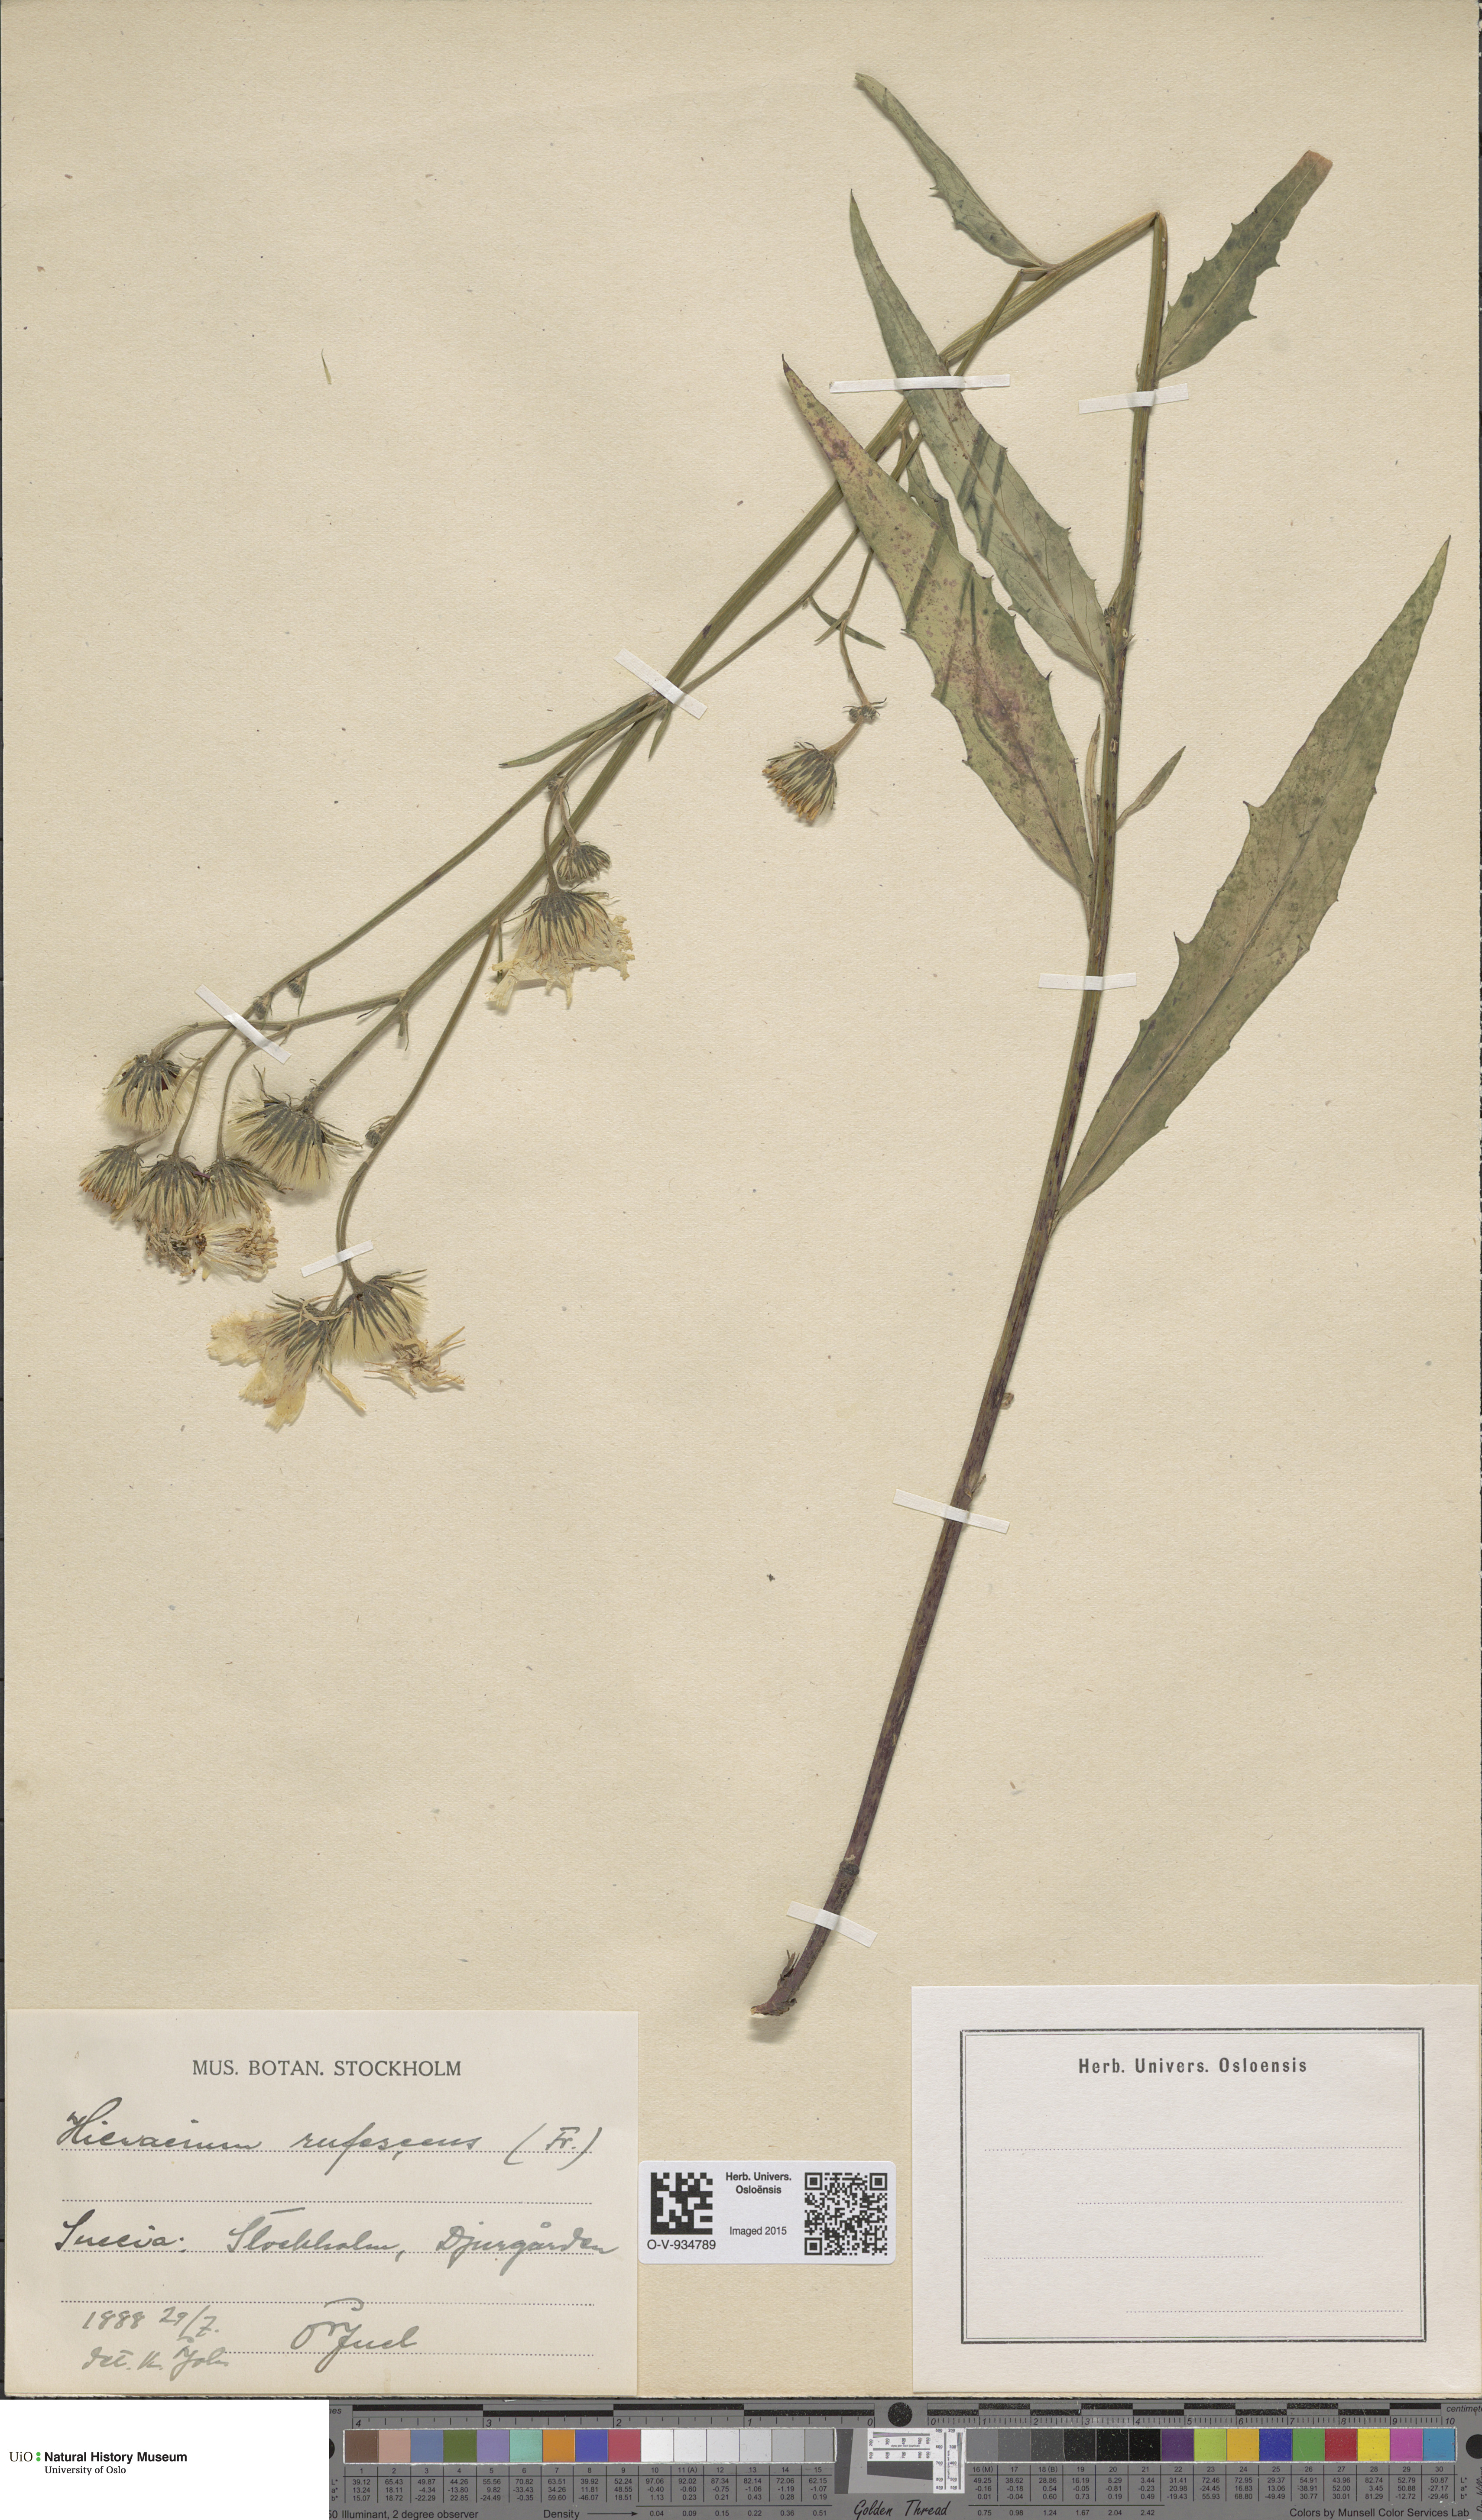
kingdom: Plantae
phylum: Tracheophyta
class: Magnoliopsida
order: Asterales
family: Asteraceae
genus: Hieracium
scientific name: Hieracium saxifragum
